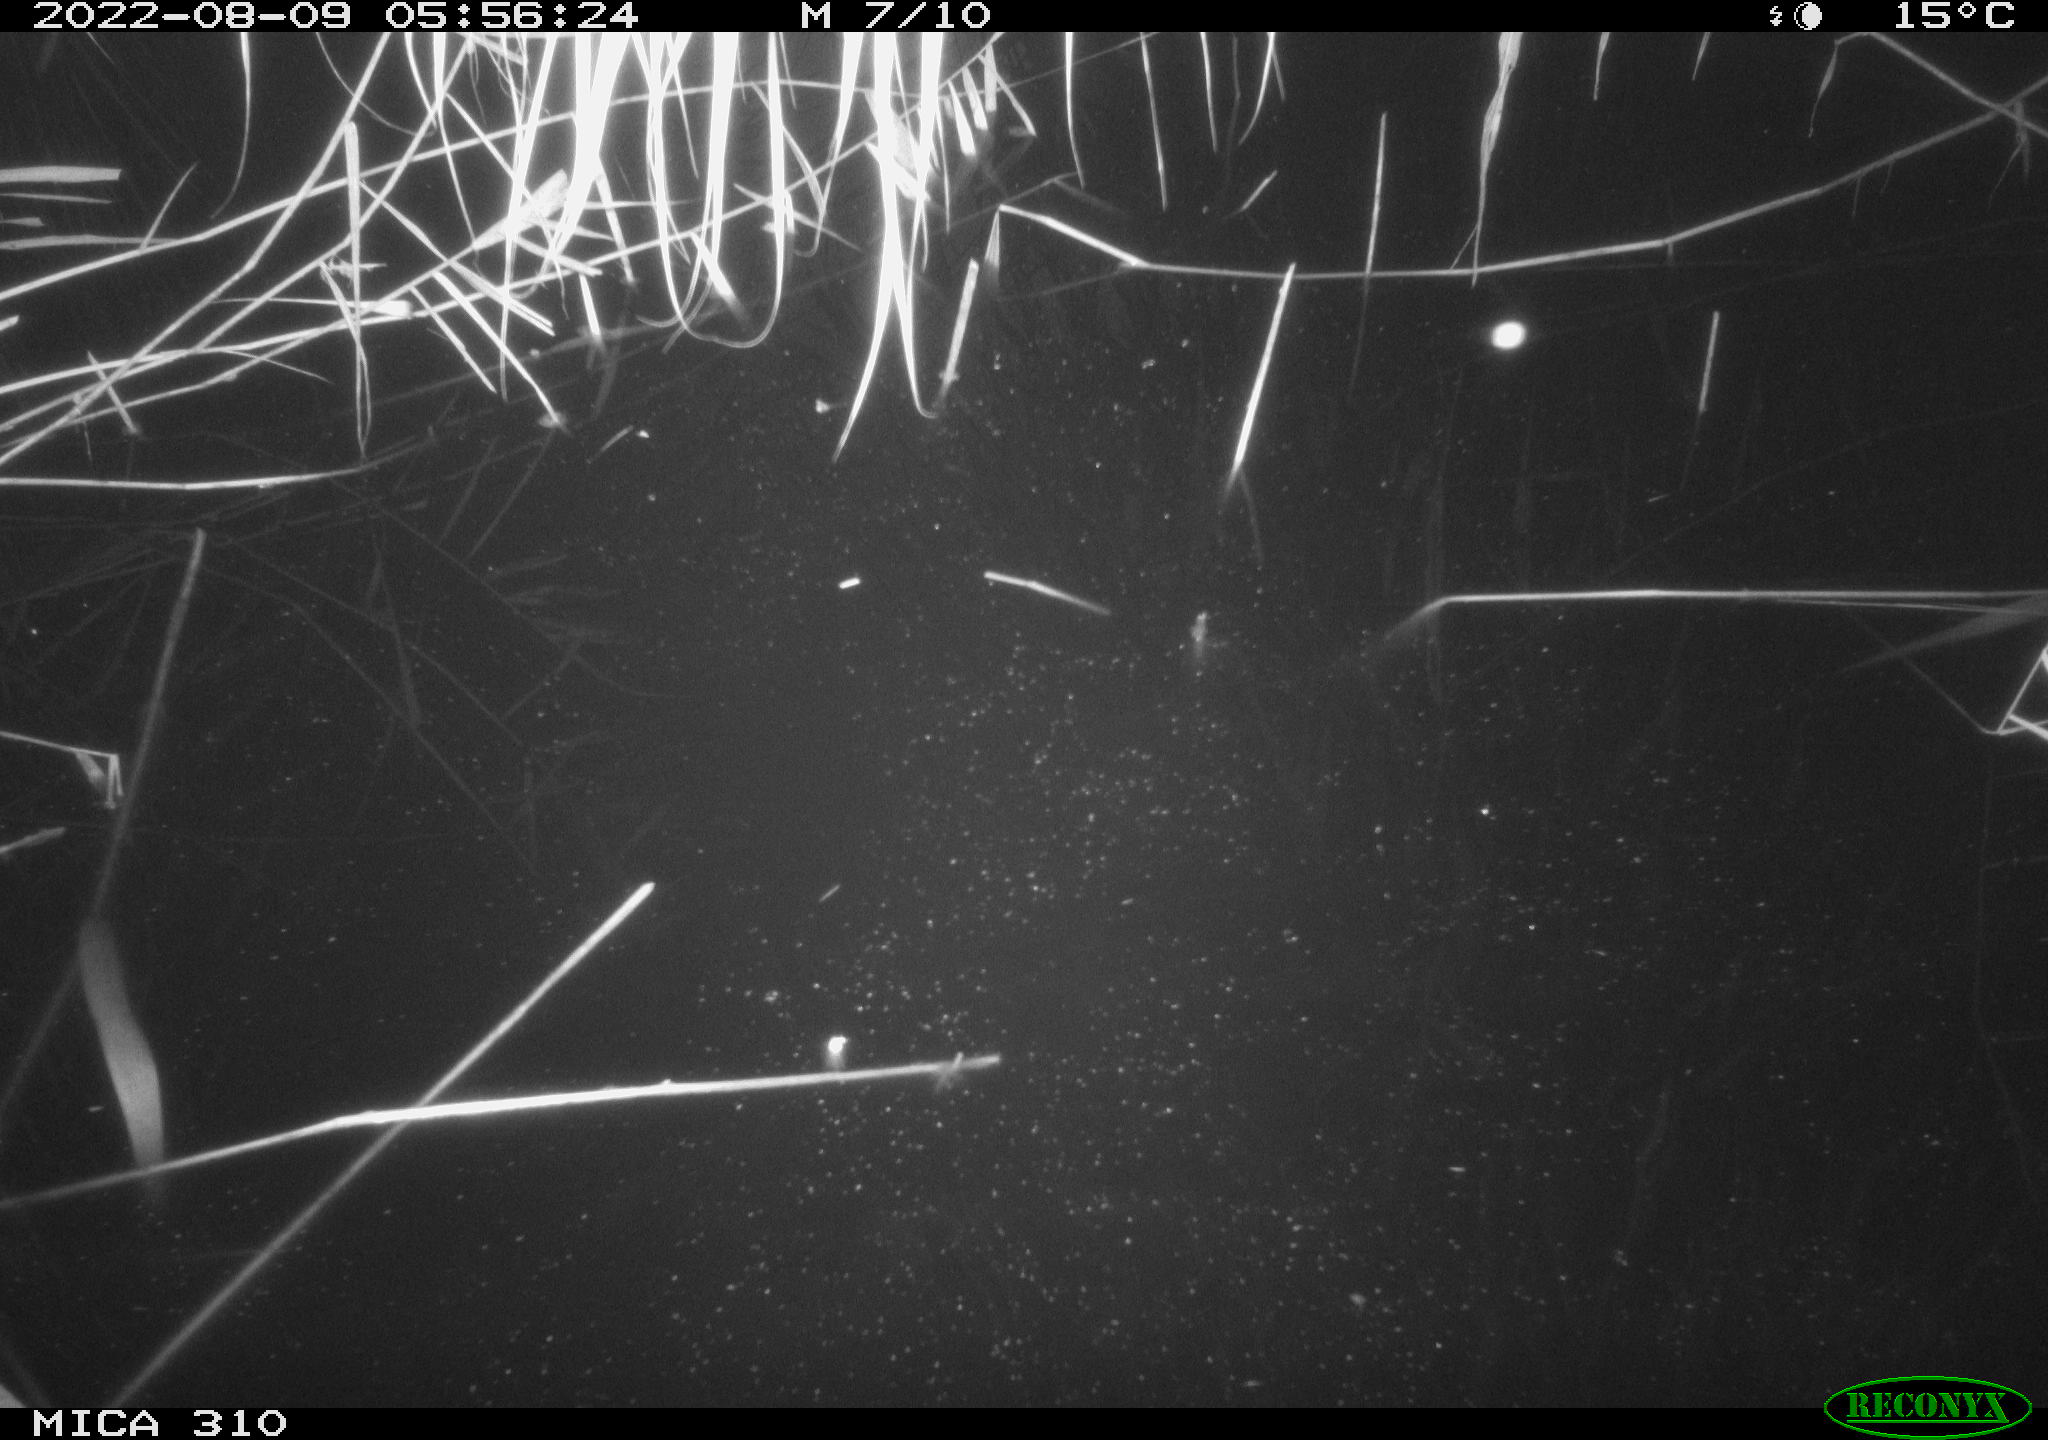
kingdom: Animalia
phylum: Chordata
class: Aves
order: Gruiformes
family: Rallidae
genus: Fulica
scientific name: Fulica atra
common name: Eurasian coot
